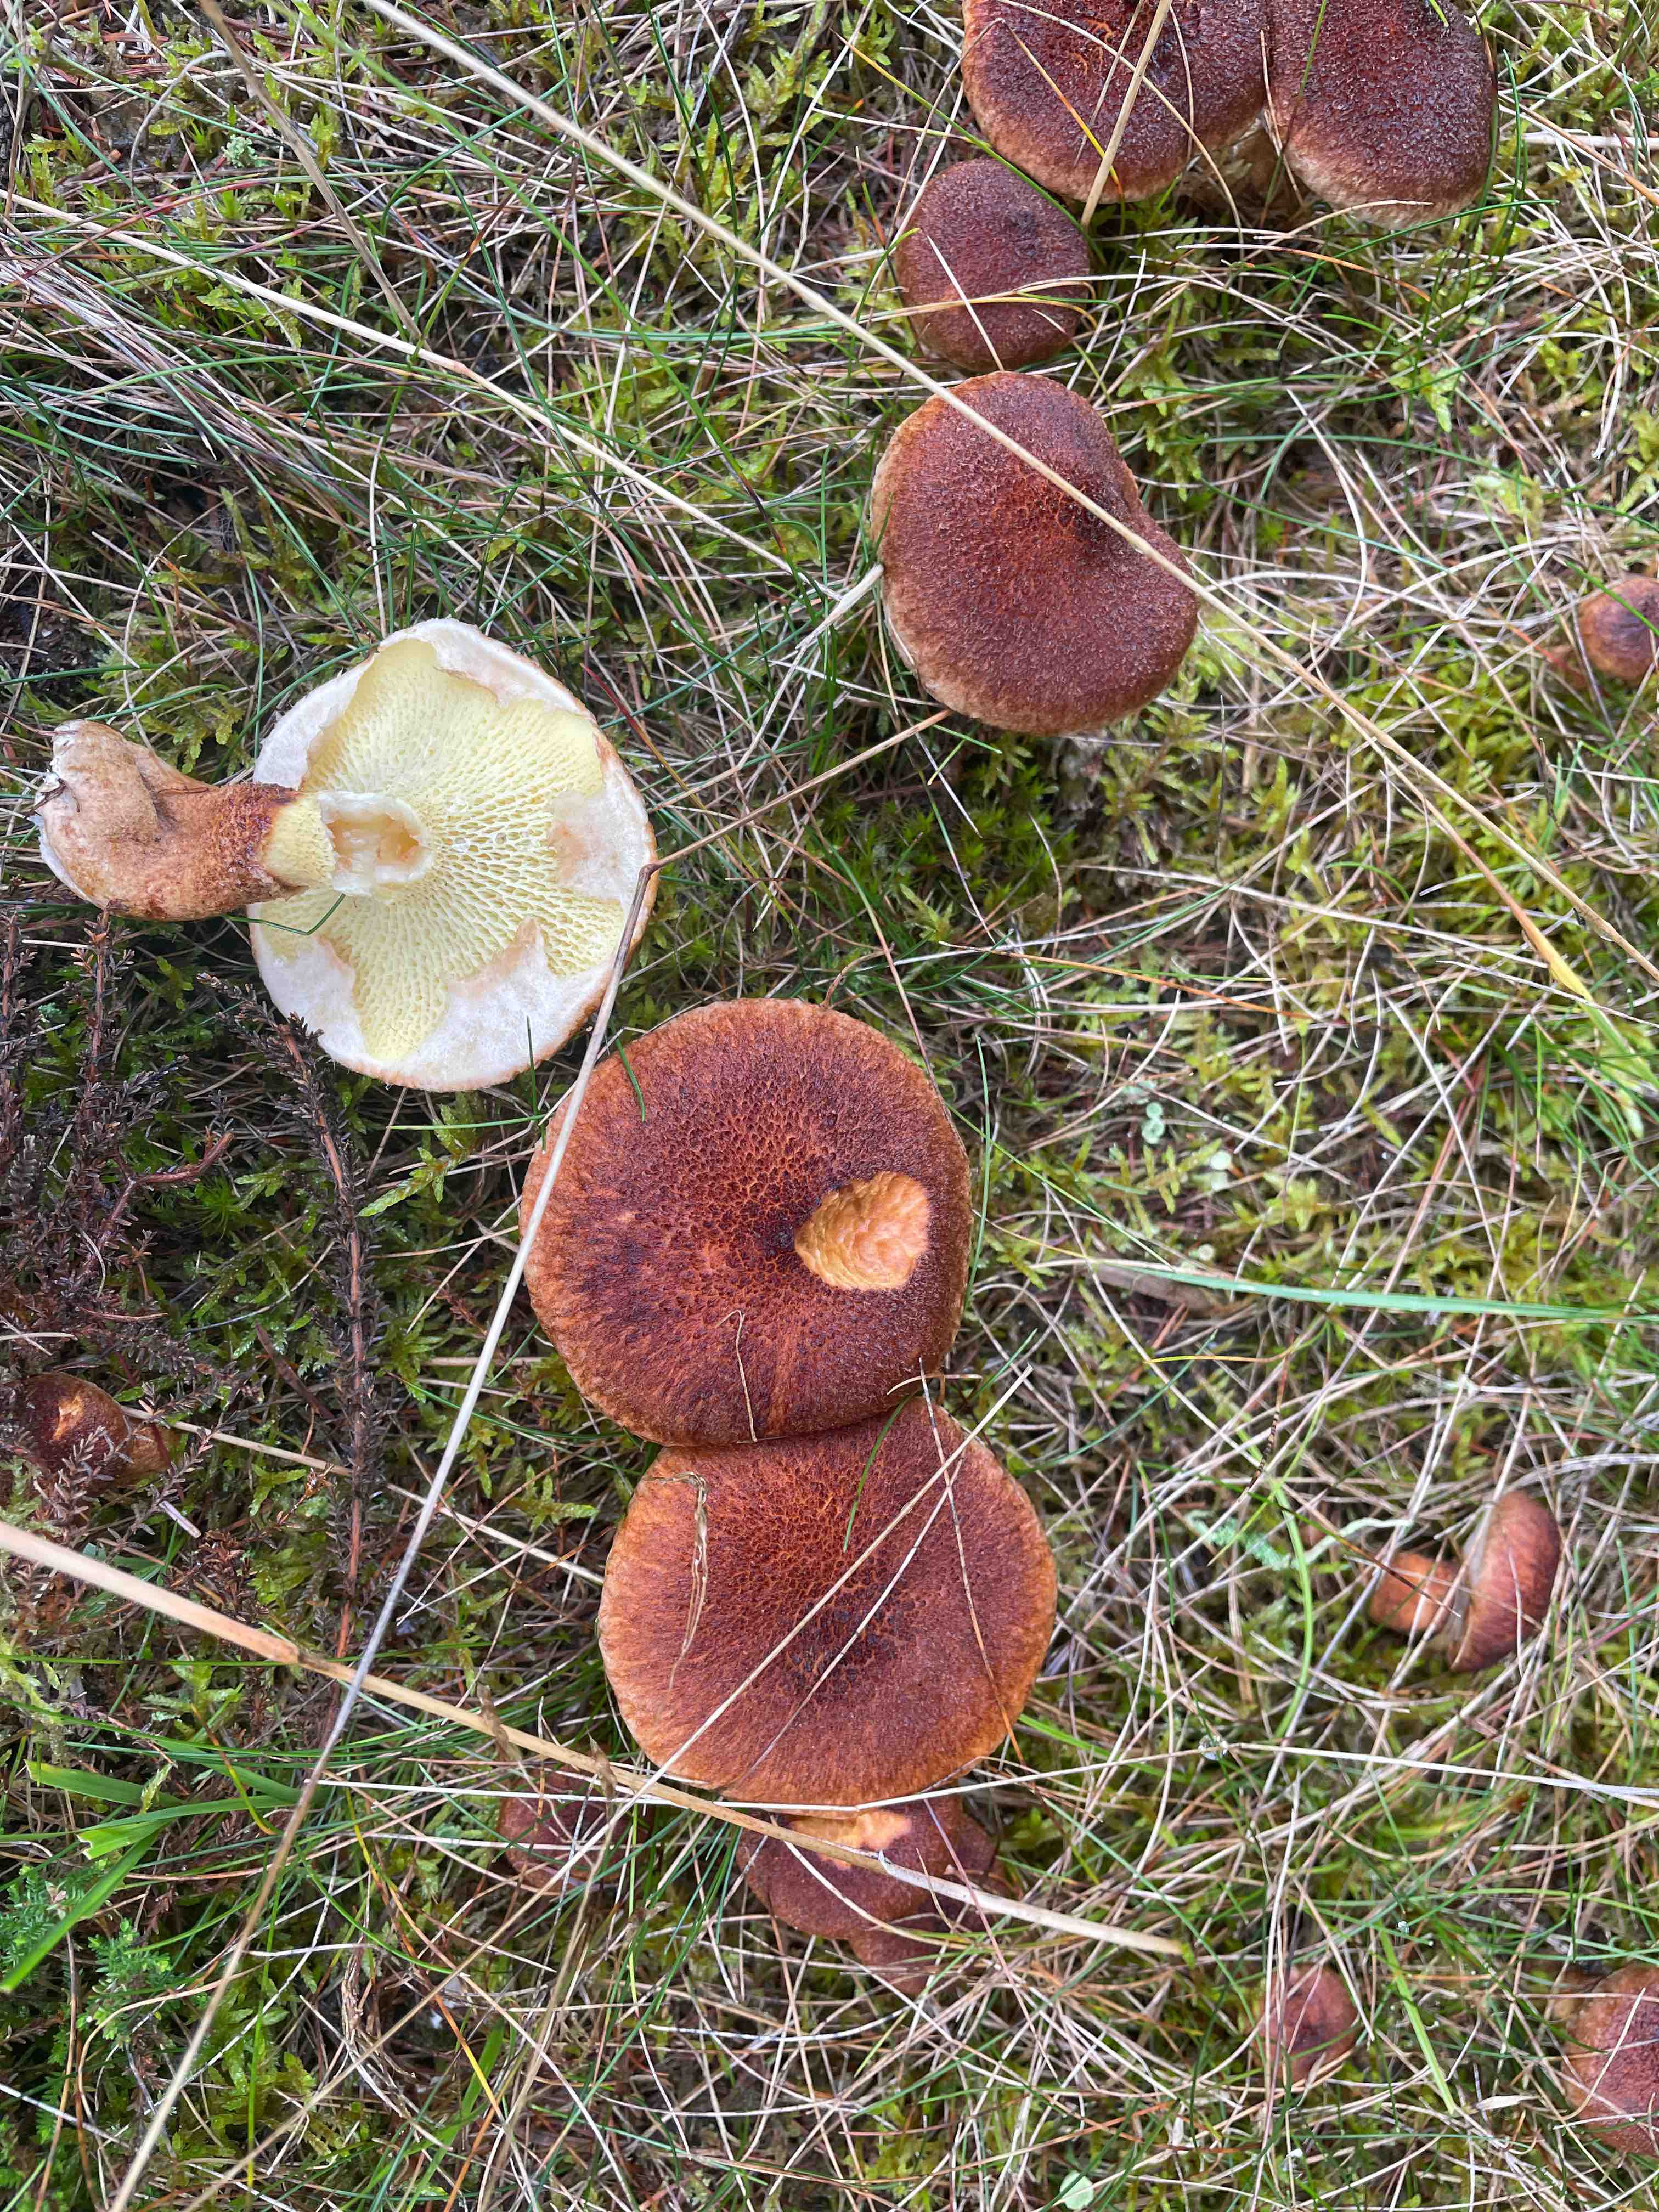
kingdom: Fungi
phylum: Basidiomycota
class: Agaricomycetes
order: Boletales
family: Suillaceae
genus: Suillus
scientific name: Suillus cavipes
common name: hulstokket slimrørhat
